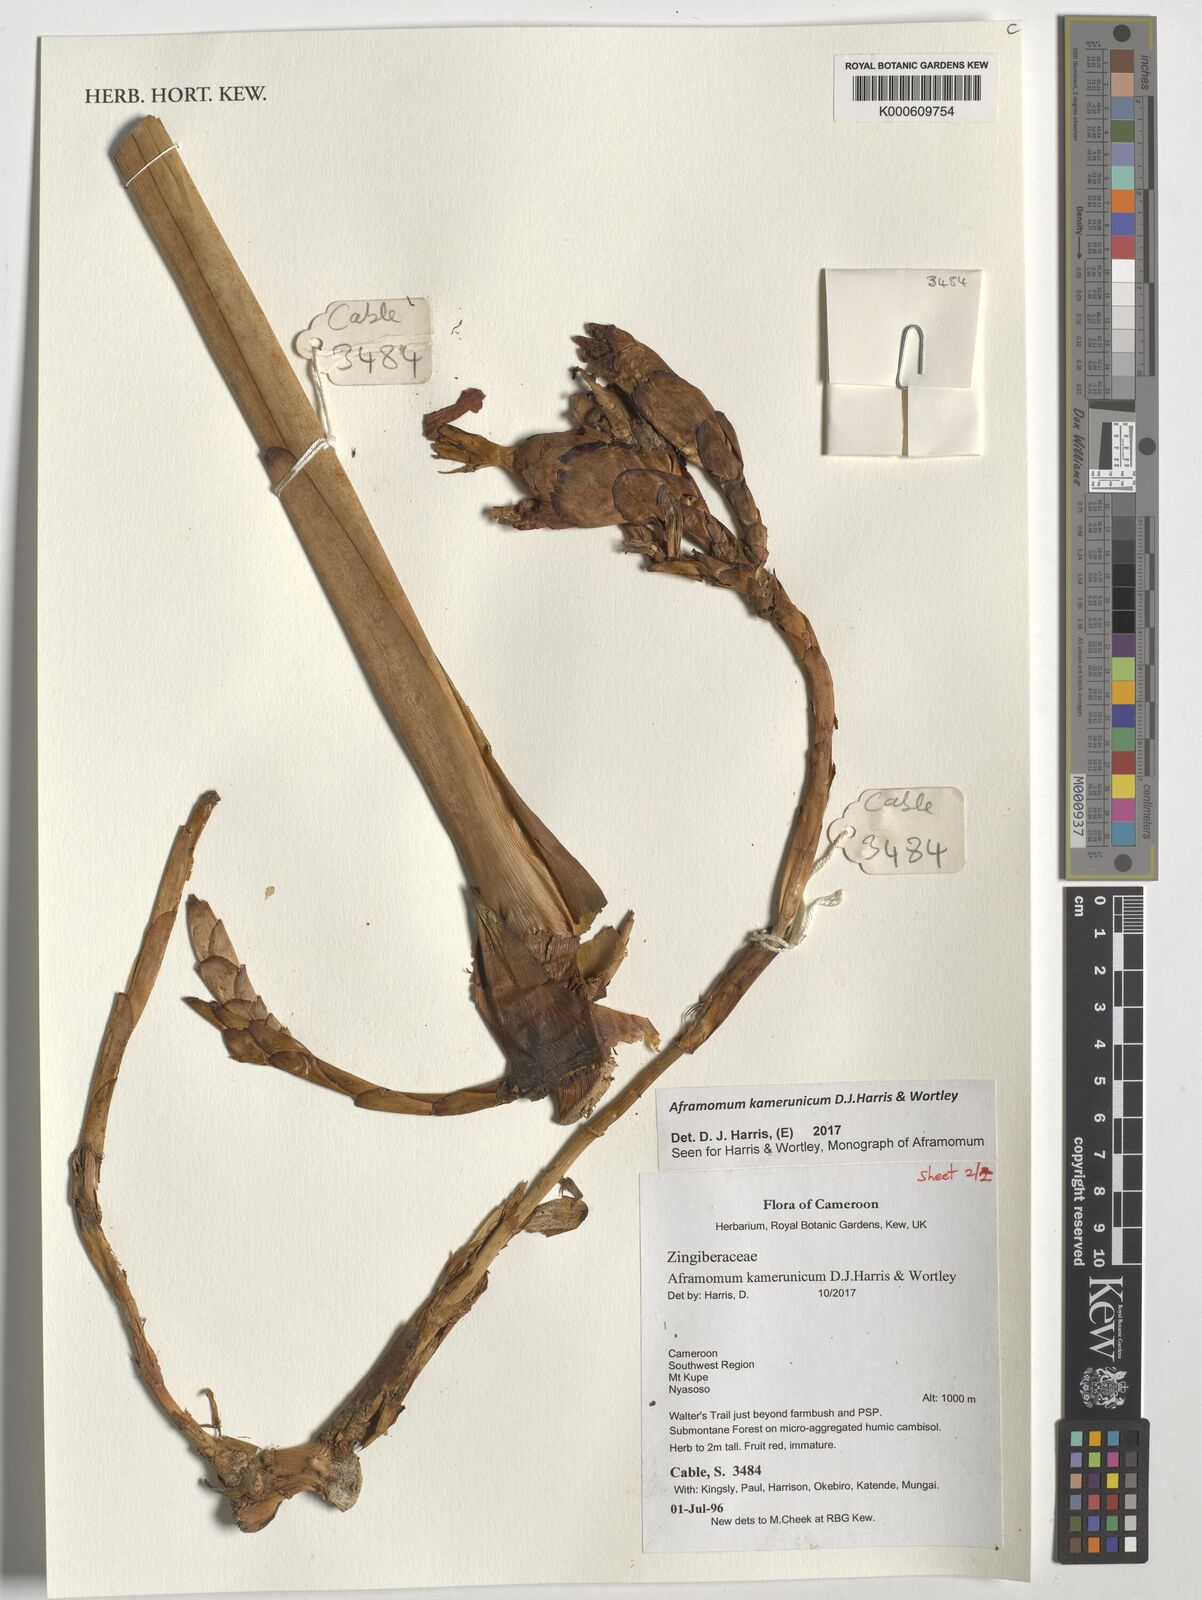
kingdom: Plantae
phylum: Tracheophyta
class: Liliopsida
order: Zingiberales
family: Zingiberaceae
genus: Aframomum
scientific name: Aframomum kamerunicum
